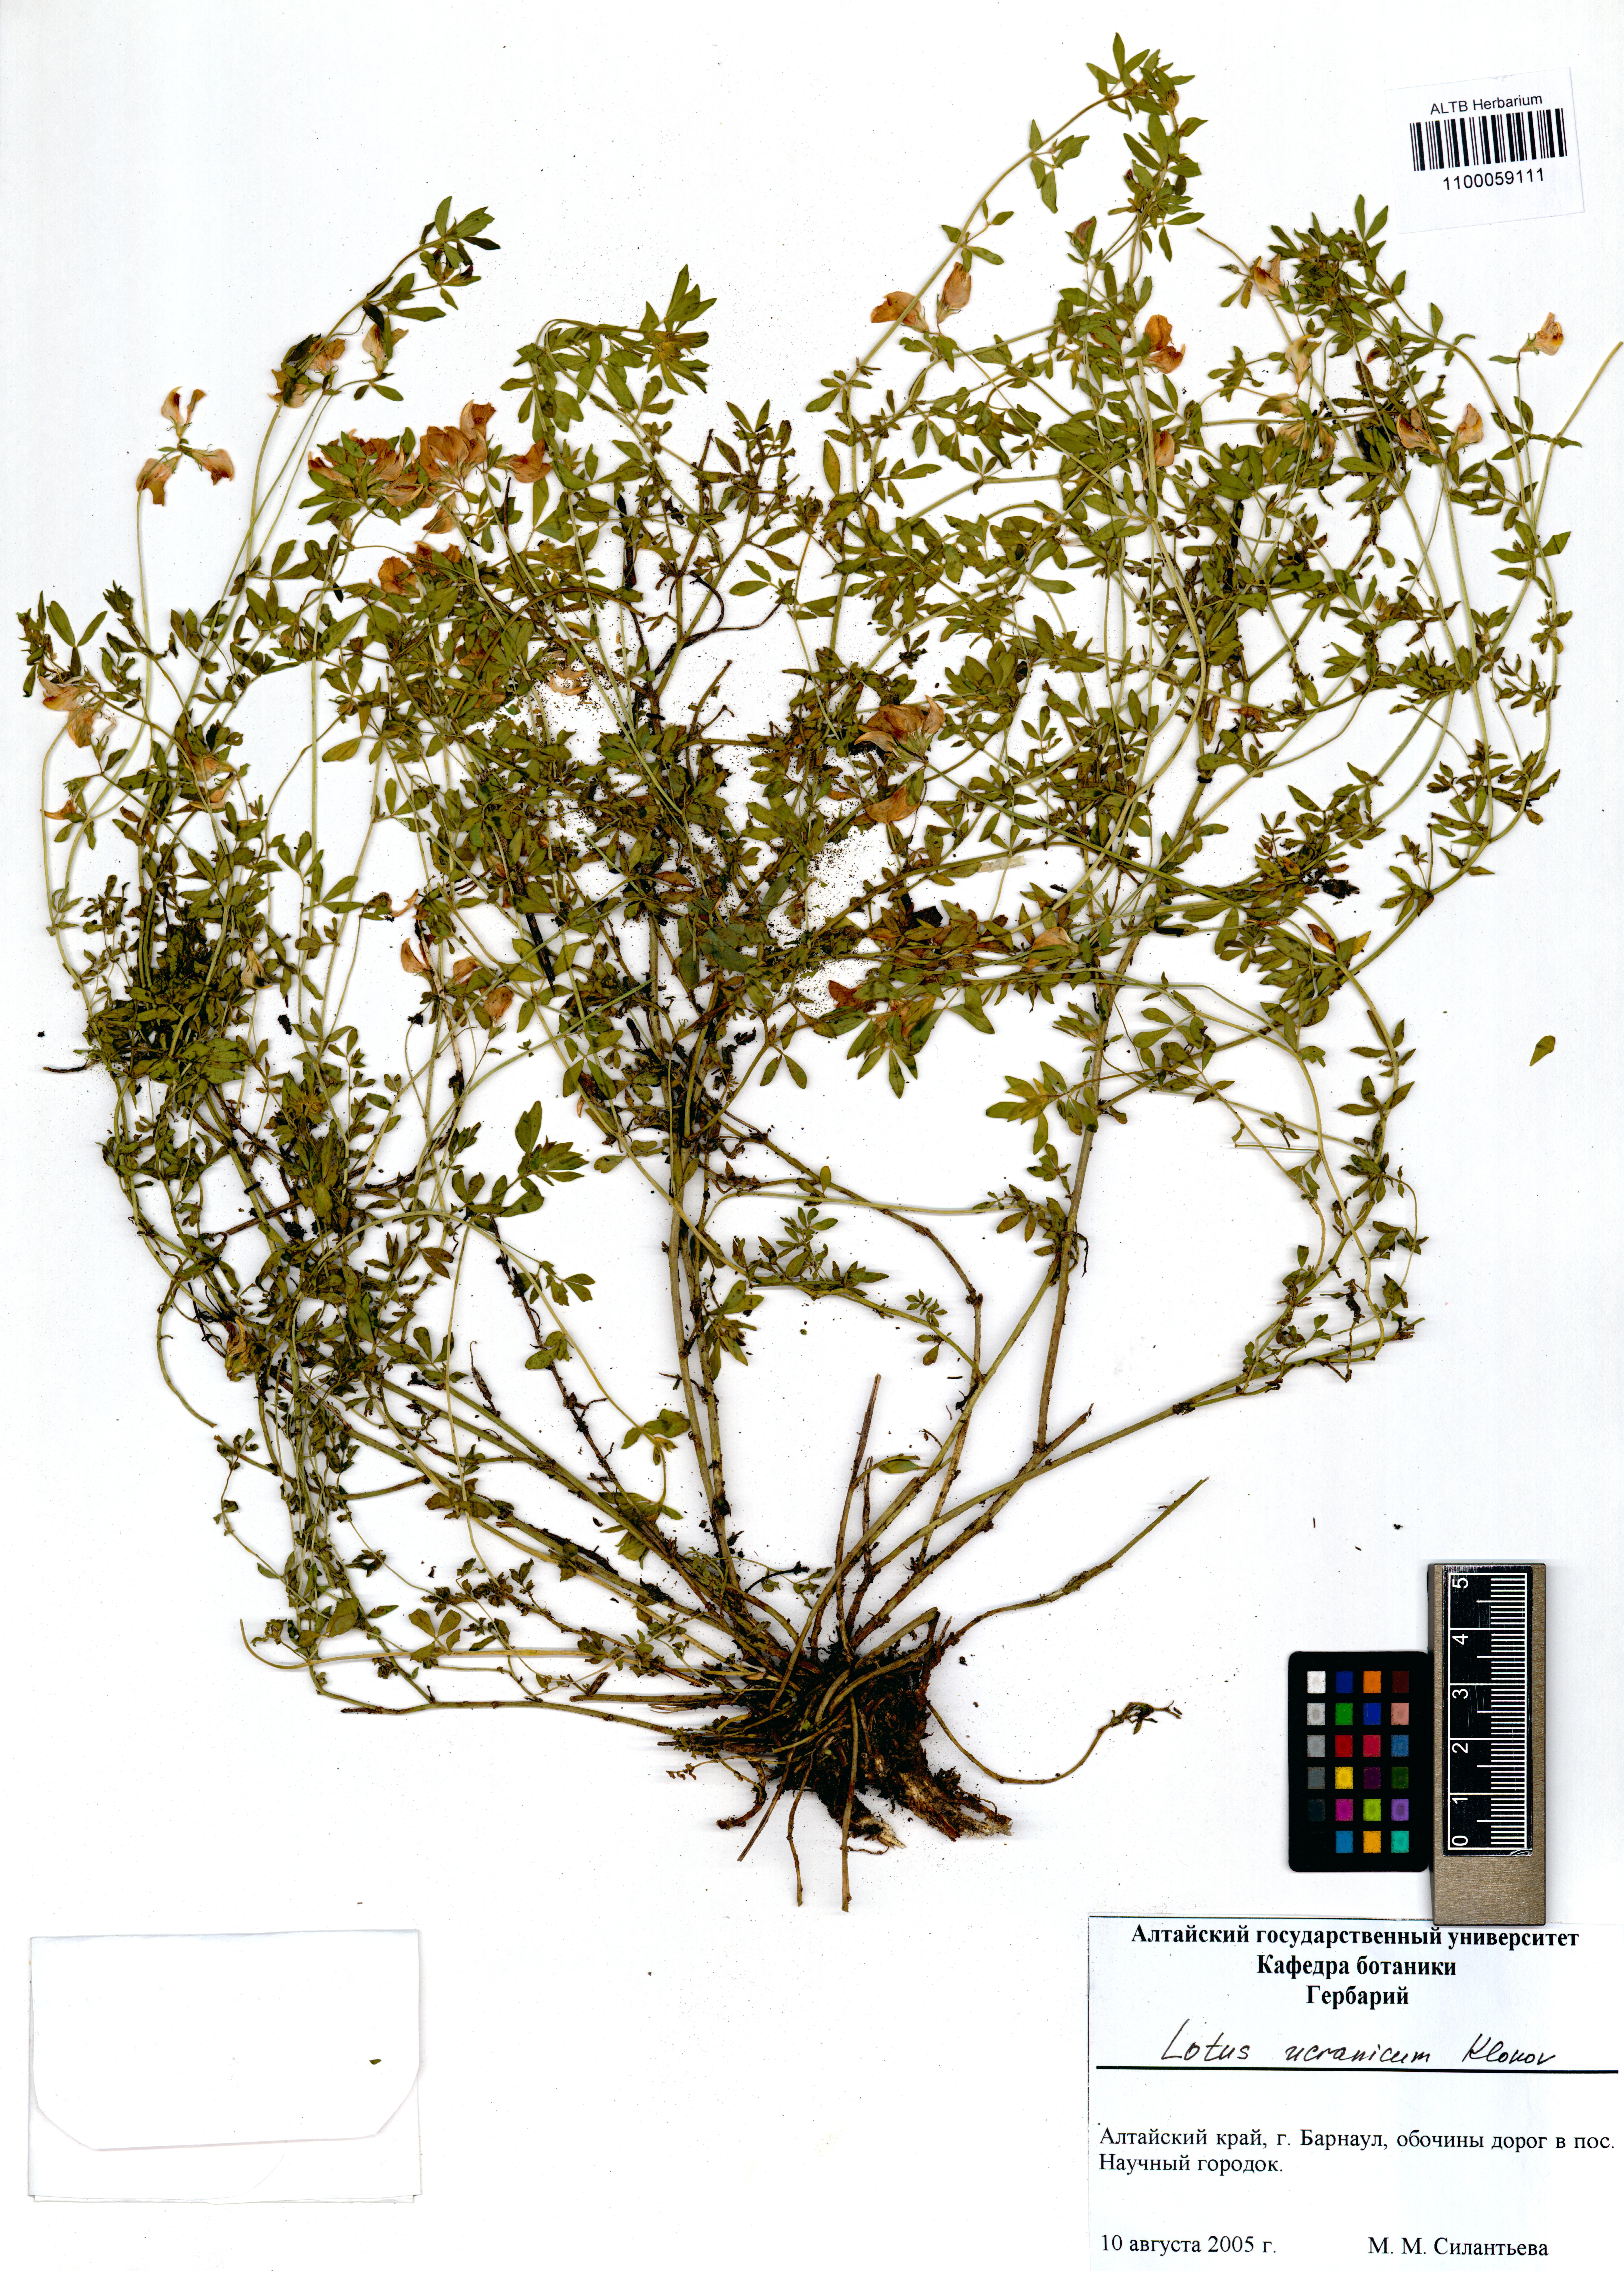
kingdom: Plantae
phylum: Tracheophyta
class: Magnoliopsida
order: Fabales
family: Fabaceae
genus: Lotus
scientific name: Lotus ucrainicus
